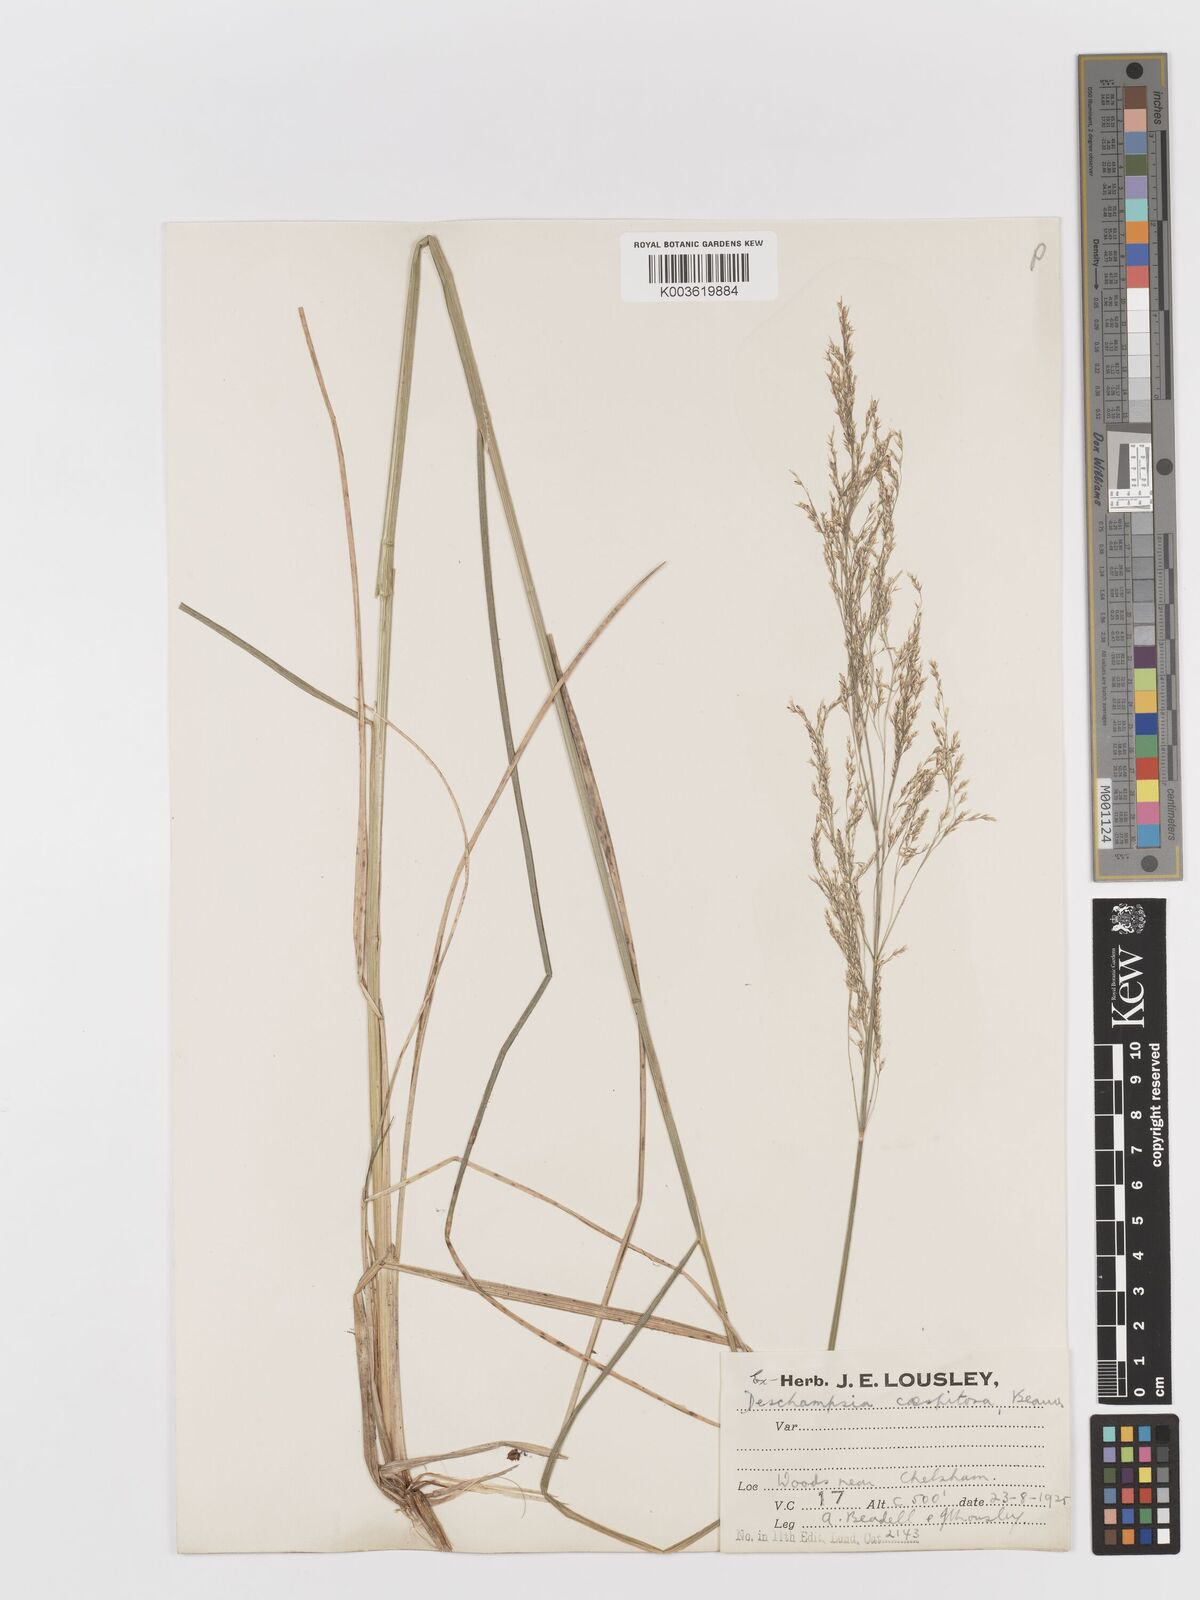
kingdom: Plantae
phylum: Tracheophyta
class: Liliopsida
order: Poales
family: Poaceae
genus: Deschampsia
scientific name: Deschampsia cespitosa
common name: Tufted hair-grass
